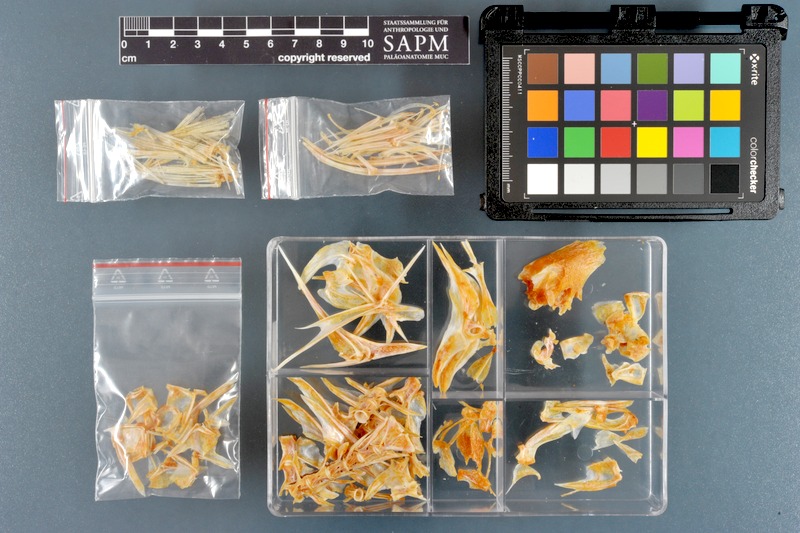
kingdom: Animalia
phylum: Chordata
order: Perciformes
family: Siganidae
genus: Siganus
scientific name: Siganus canaliculatus
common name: White-spotted spinefoot
